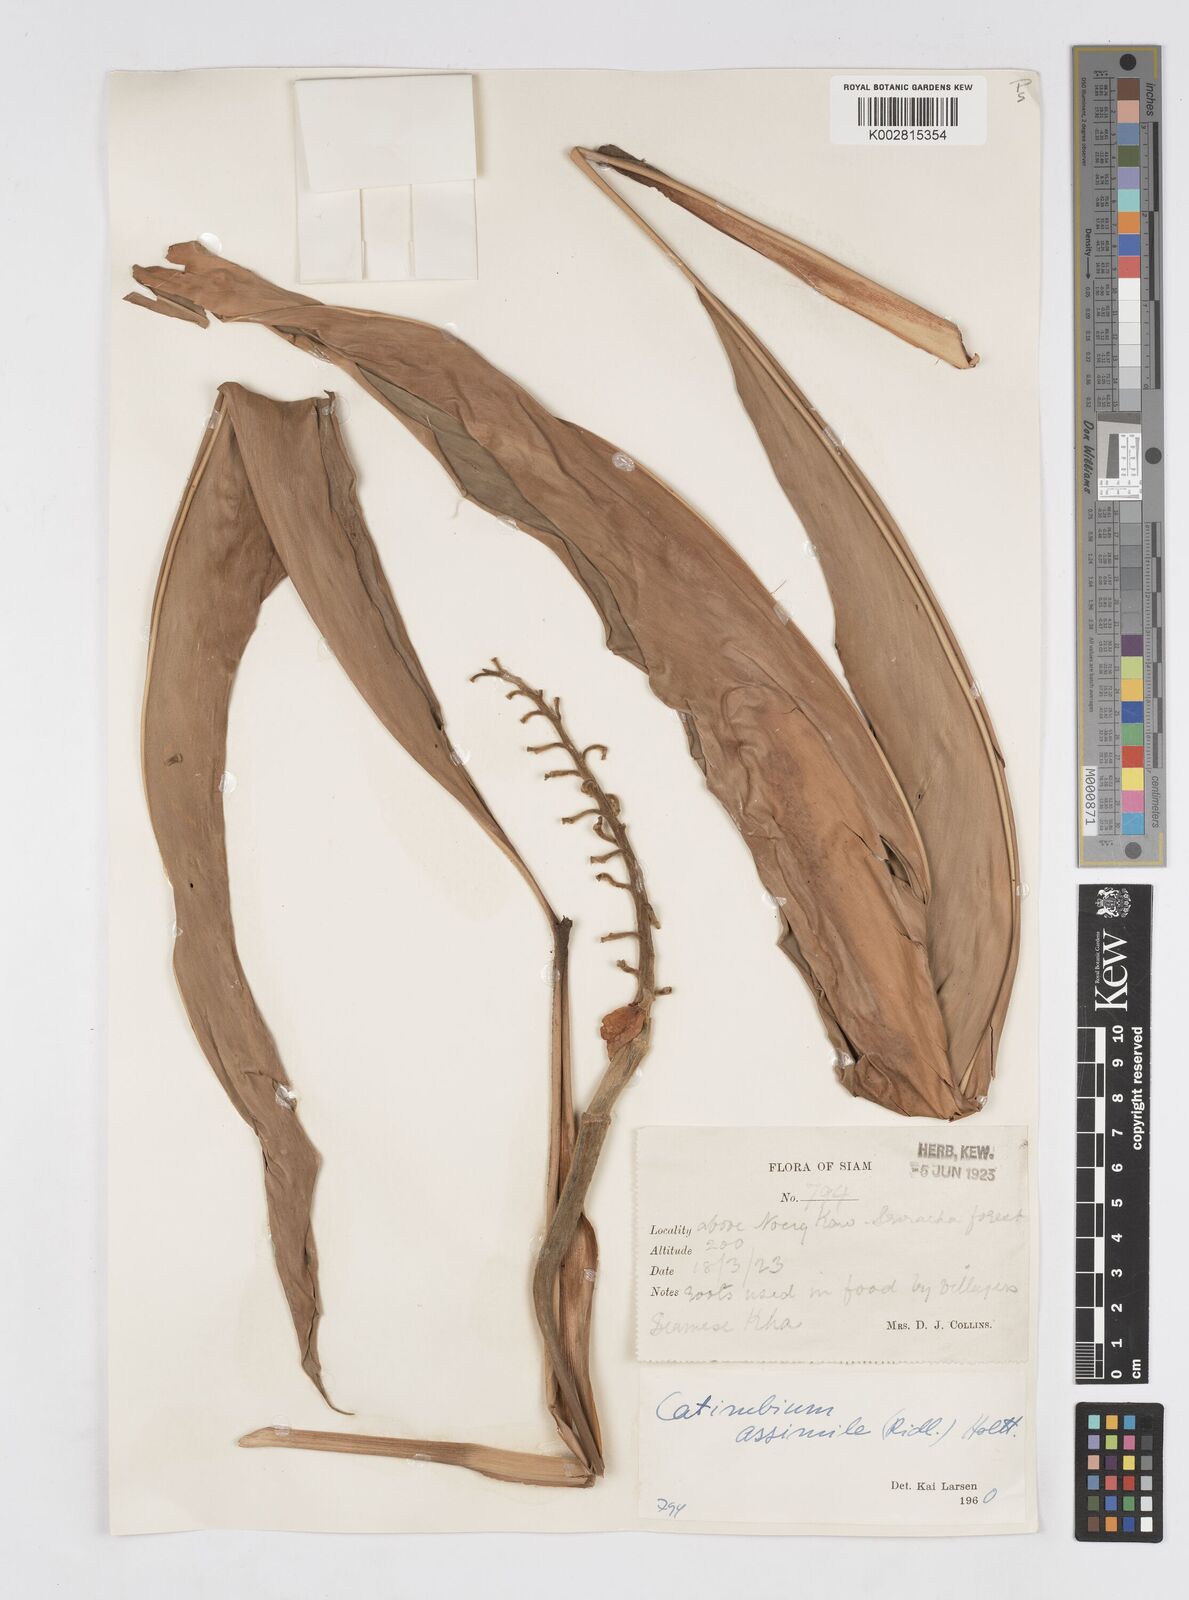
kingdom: Plantae
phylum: Tracheophyta
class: Liliopsida
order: Zingiberales
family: Zingiberaceae
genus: Alpinia
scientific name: Alpinia assimilis
